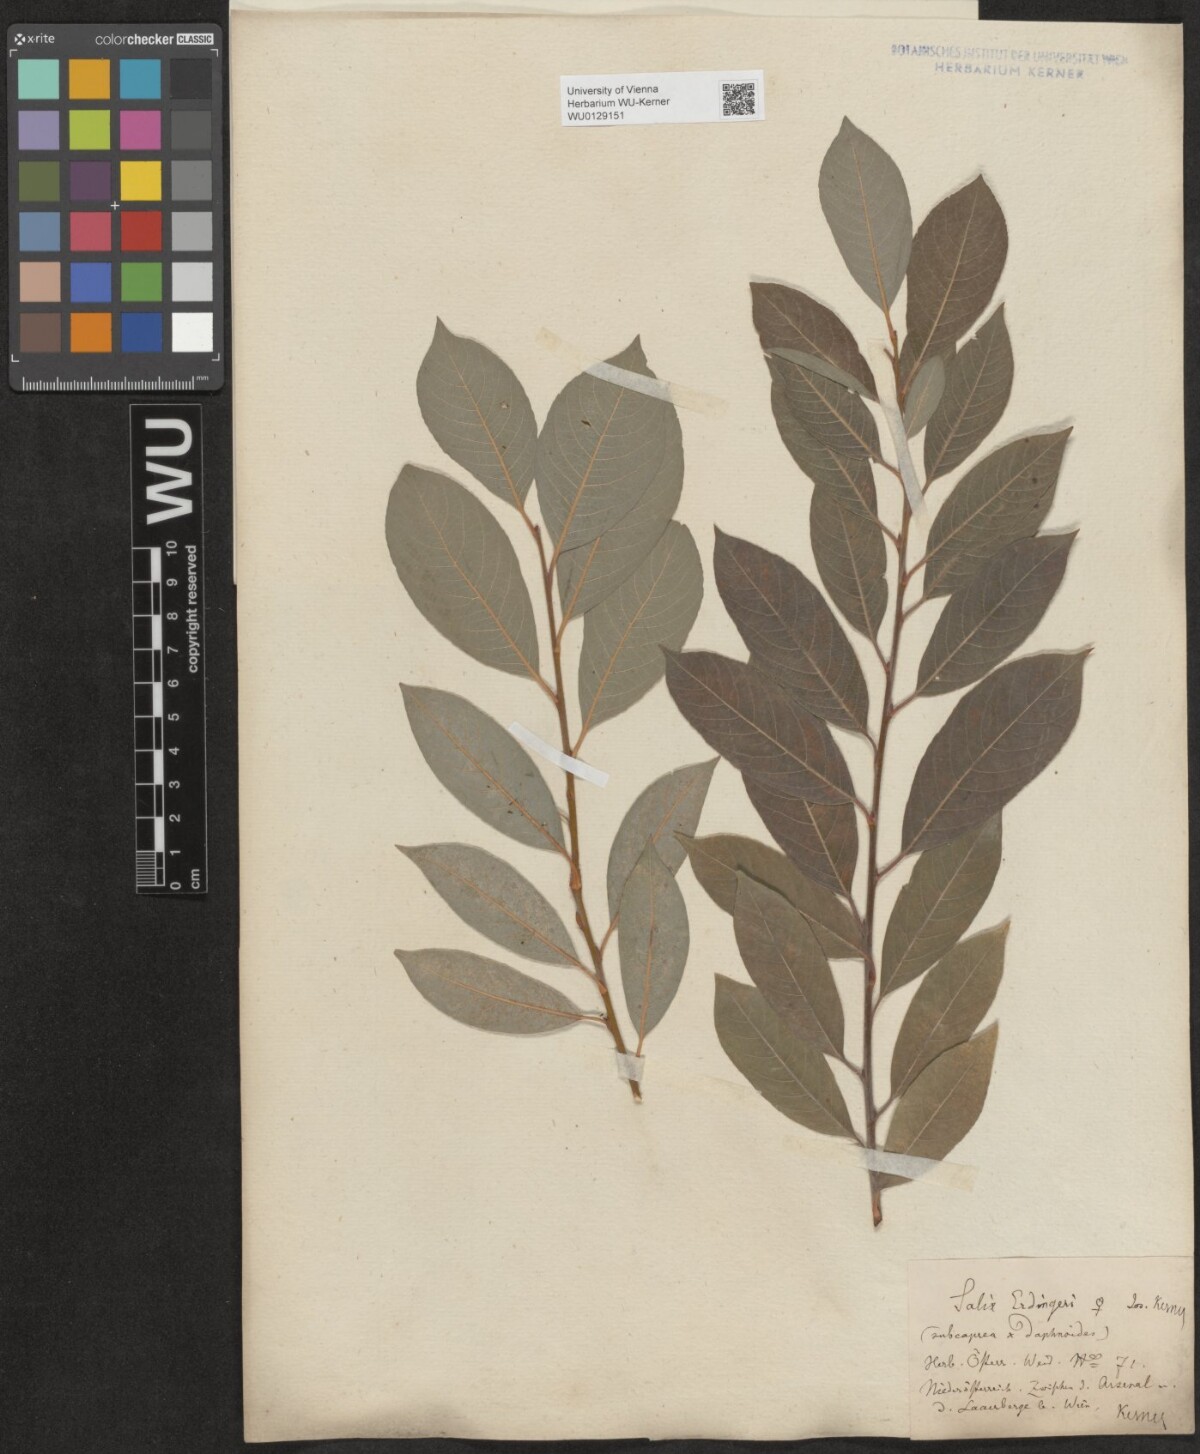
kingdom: Plantae
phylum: Tracheophyta
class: Magnoliopsida
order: Malpighiales
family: Salicaceae
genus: Salix
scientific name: Salix erdingeri
